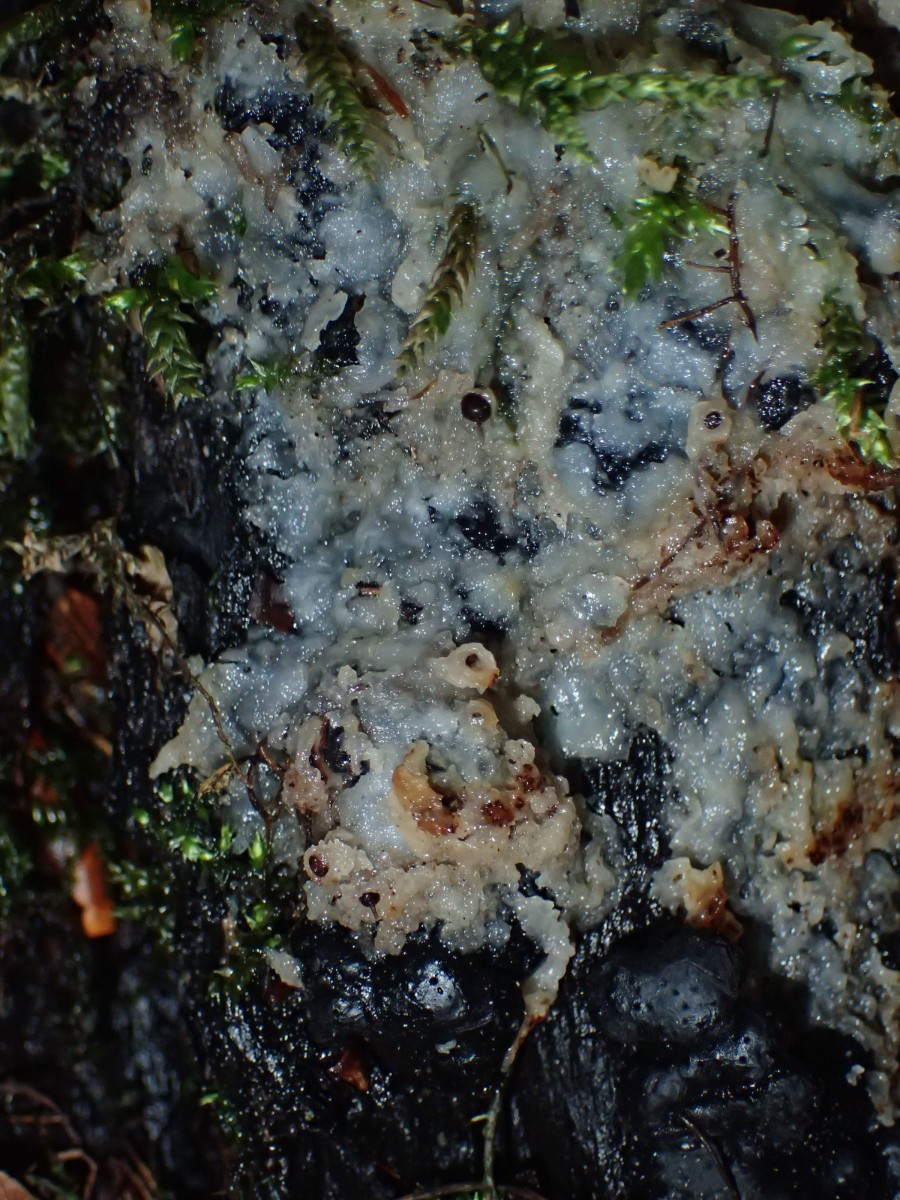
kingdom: Fungi
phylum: Basidiomycota
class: Agaricomycetes
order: Polyporales
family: Meruliaceae
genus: Physisporinus
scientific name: Physisporinus vitreus
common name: mastesvamp
